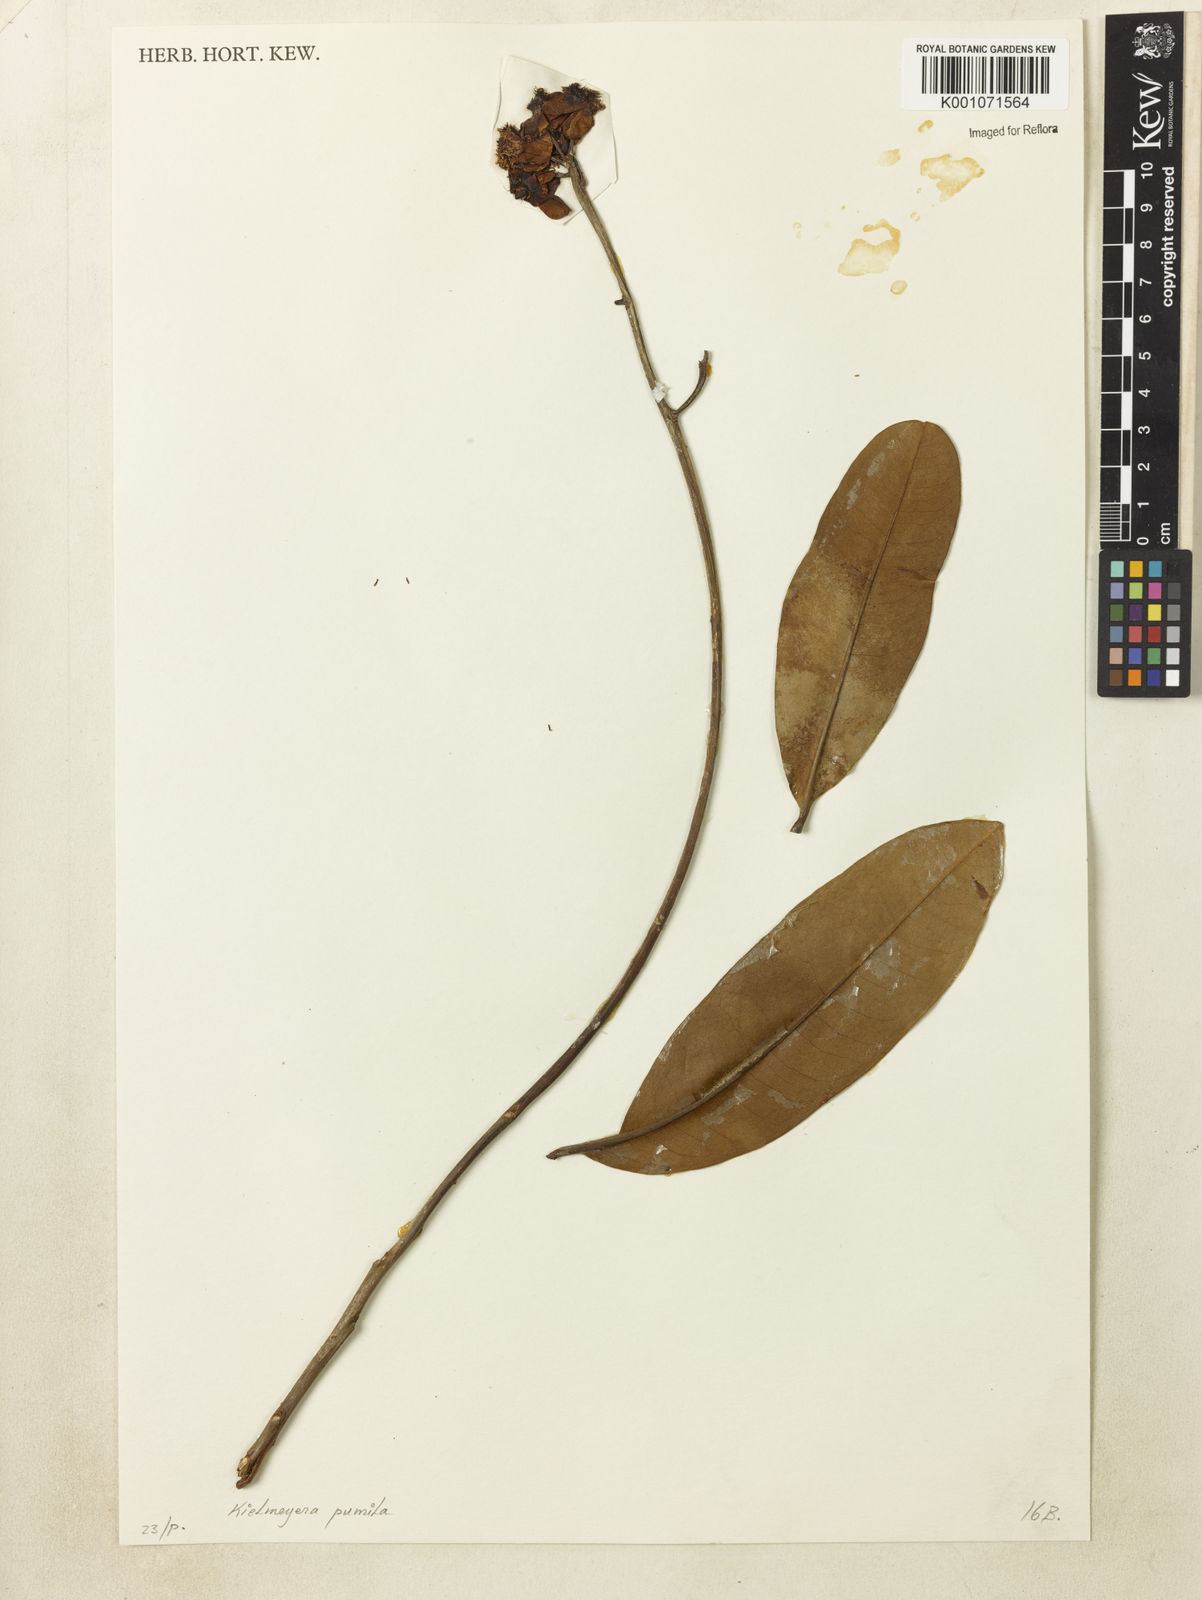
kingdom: Plantae
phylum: Tracheophyta
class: Magnoliopsida
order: Malpighiales
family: Calophyllaceae
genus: Kielmeyera
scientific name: Kielmeyera pumila
